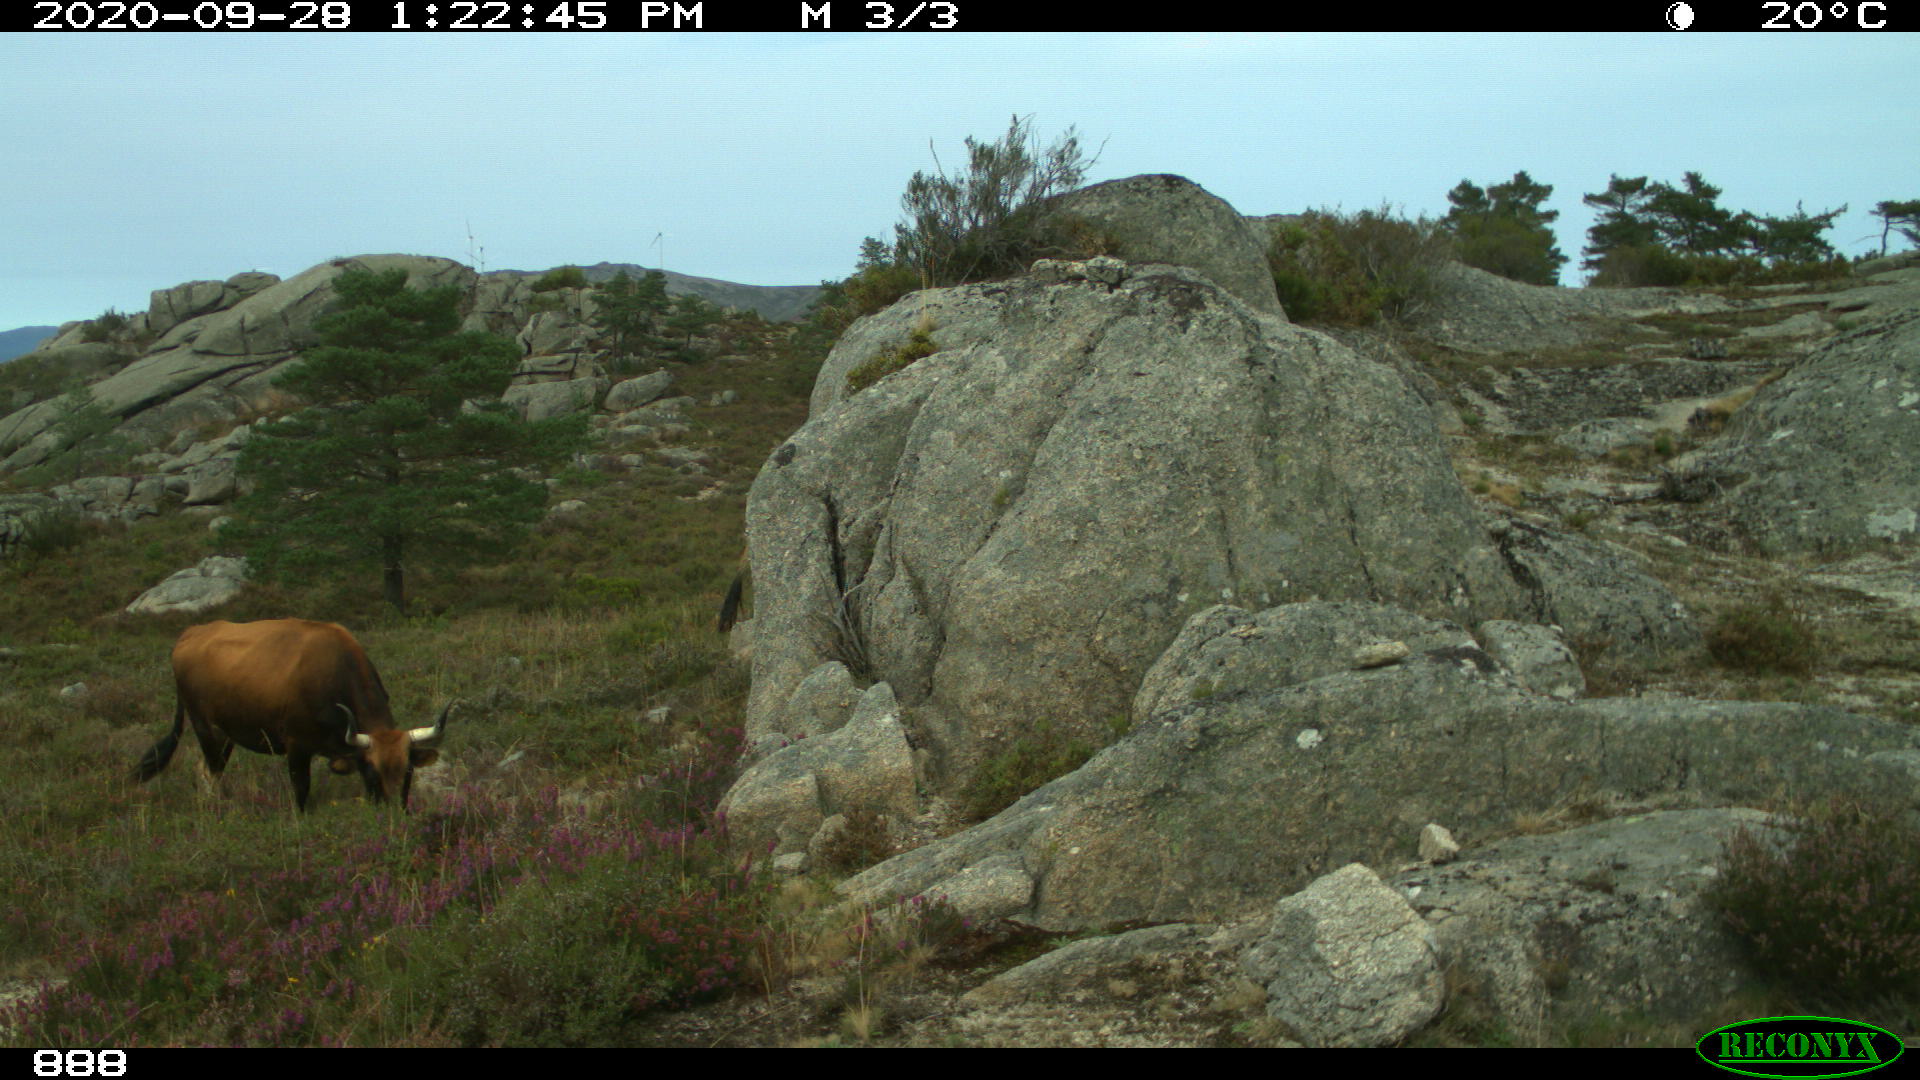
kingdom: Animalia
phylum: Chordata
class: Mammalia
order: Artiodactyla
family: Bovidae
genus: Bos
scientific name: Bos taurus
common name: Domesticated cattle
